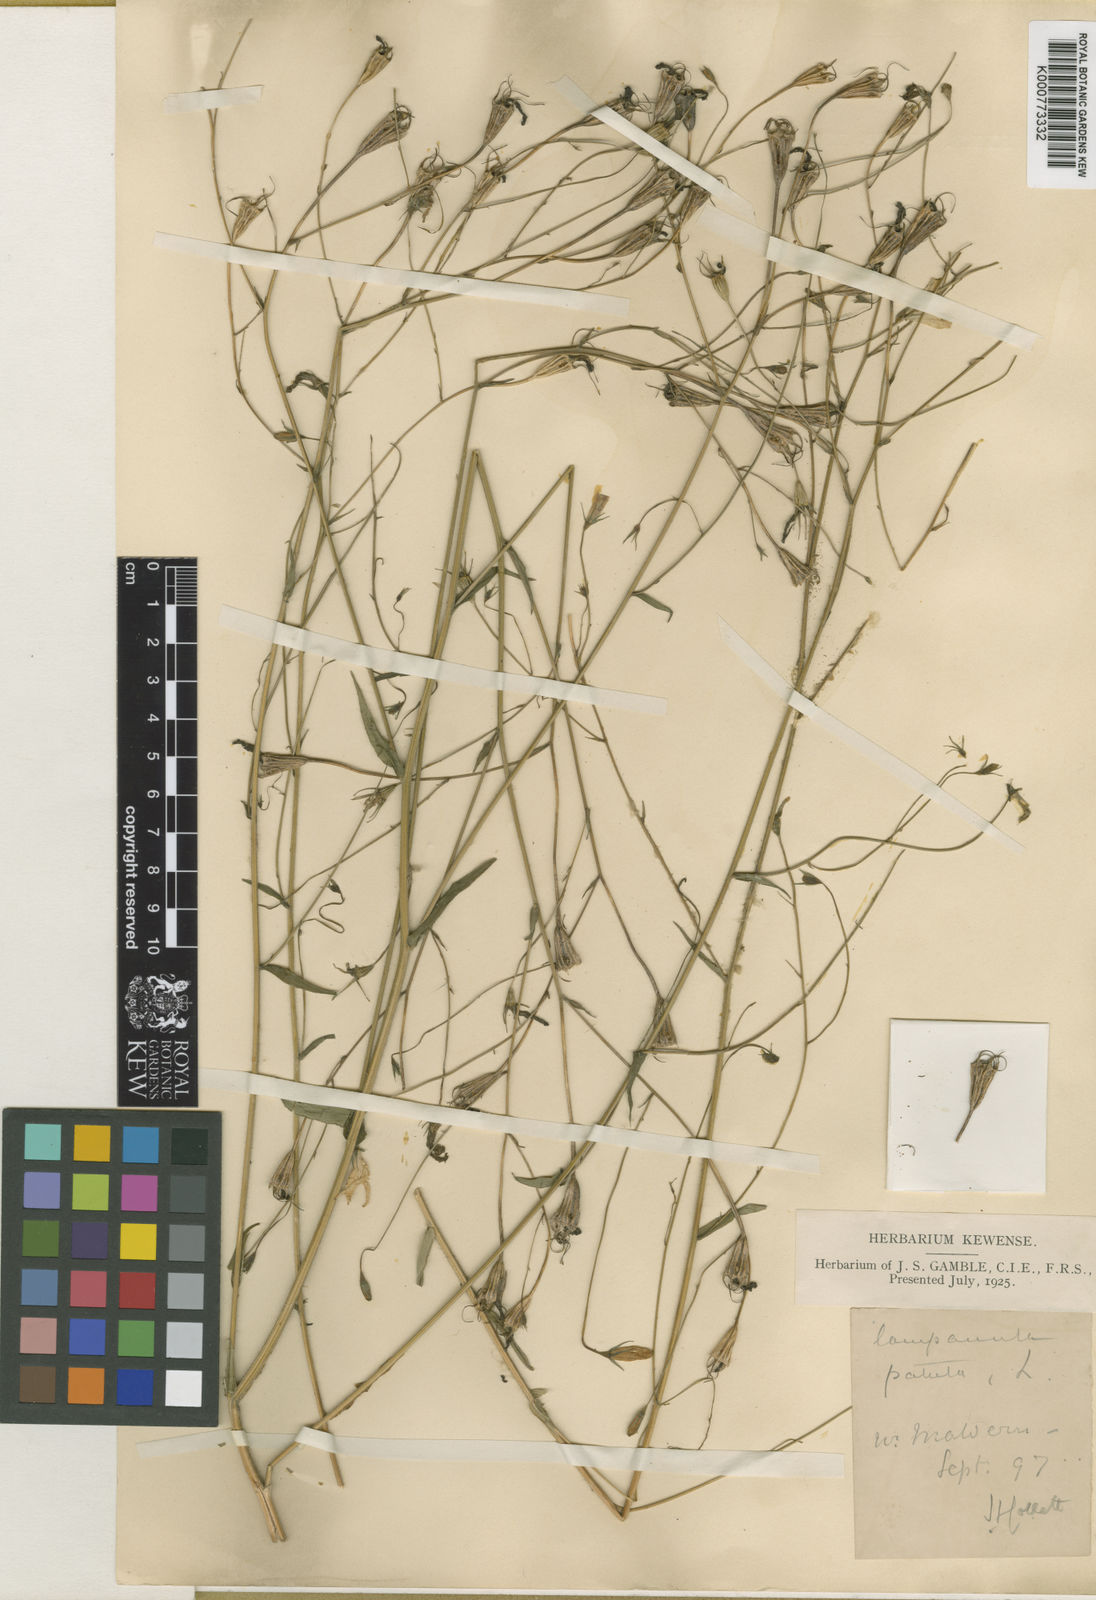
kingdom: Plantae
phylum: Tracheophyta
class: Magnoliopsida
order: Asterales
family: Campanulaceae
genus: Campanula
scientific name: Campanula patula
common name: Spreading bellflower
